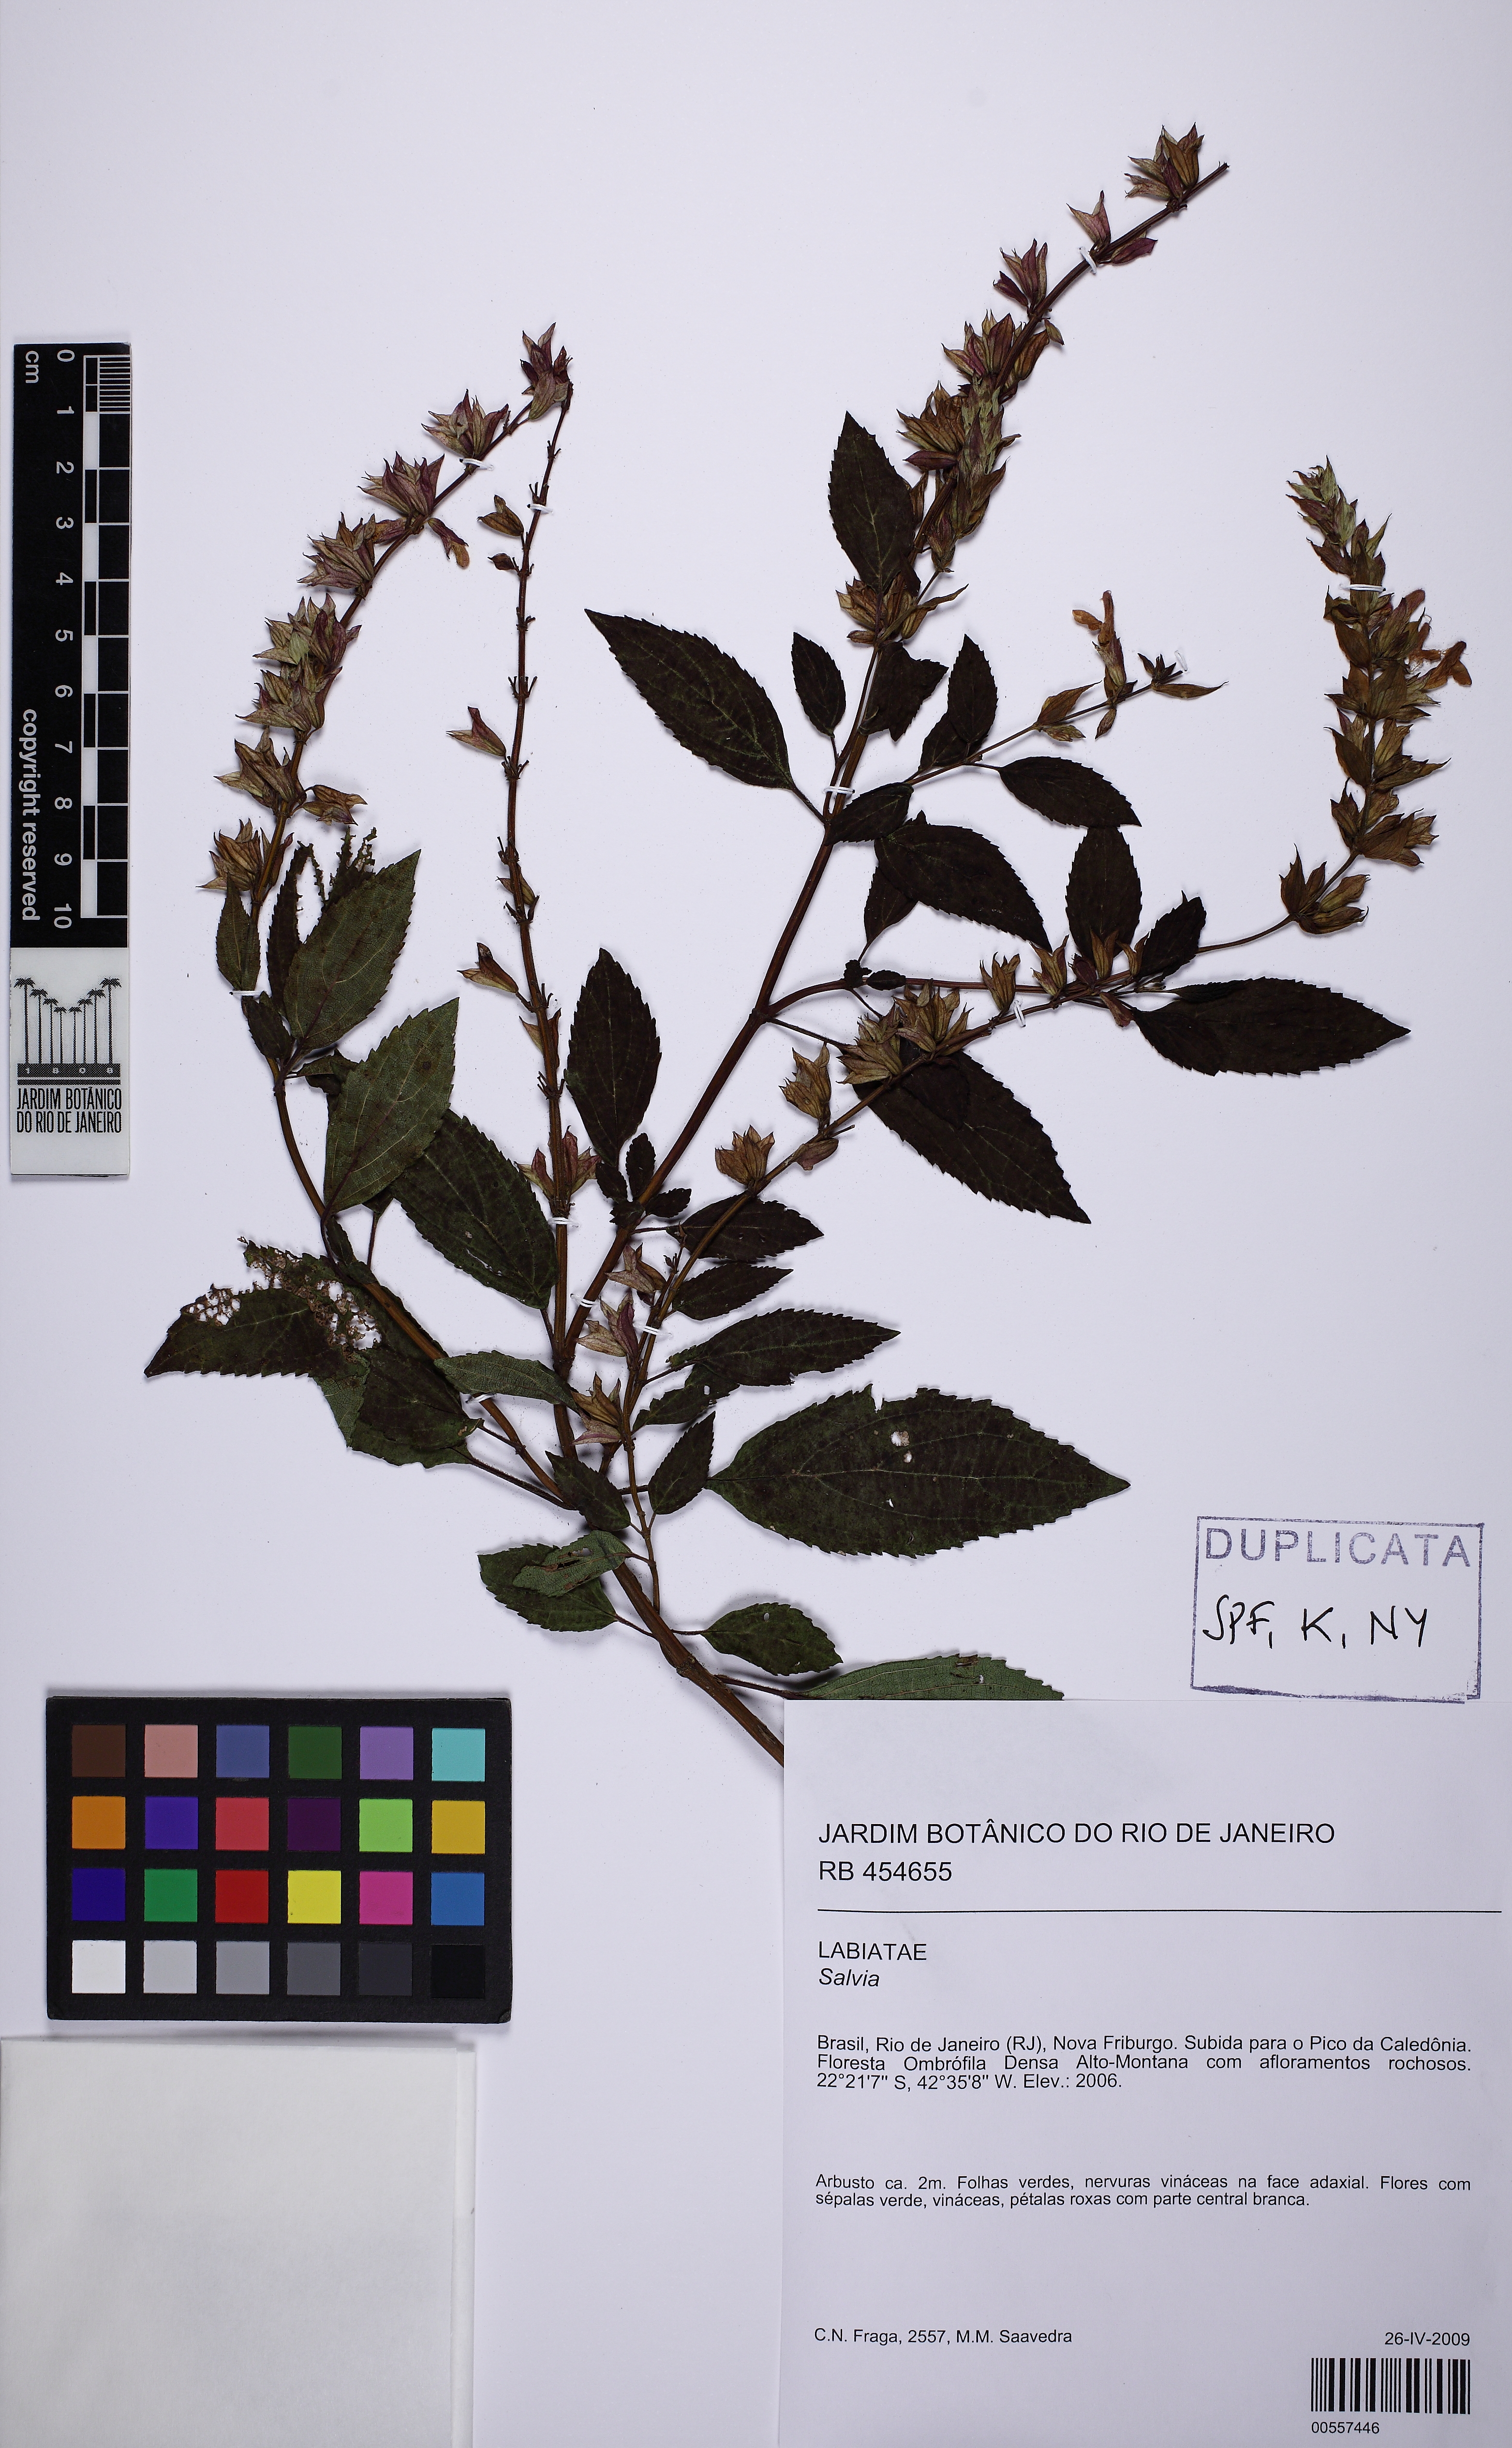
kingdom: Plantae
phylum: Tracheophyta
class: Magnoliopsida
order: Lamiales
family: Lamiaceae
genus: Salvia
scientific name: Salvia arenaria
